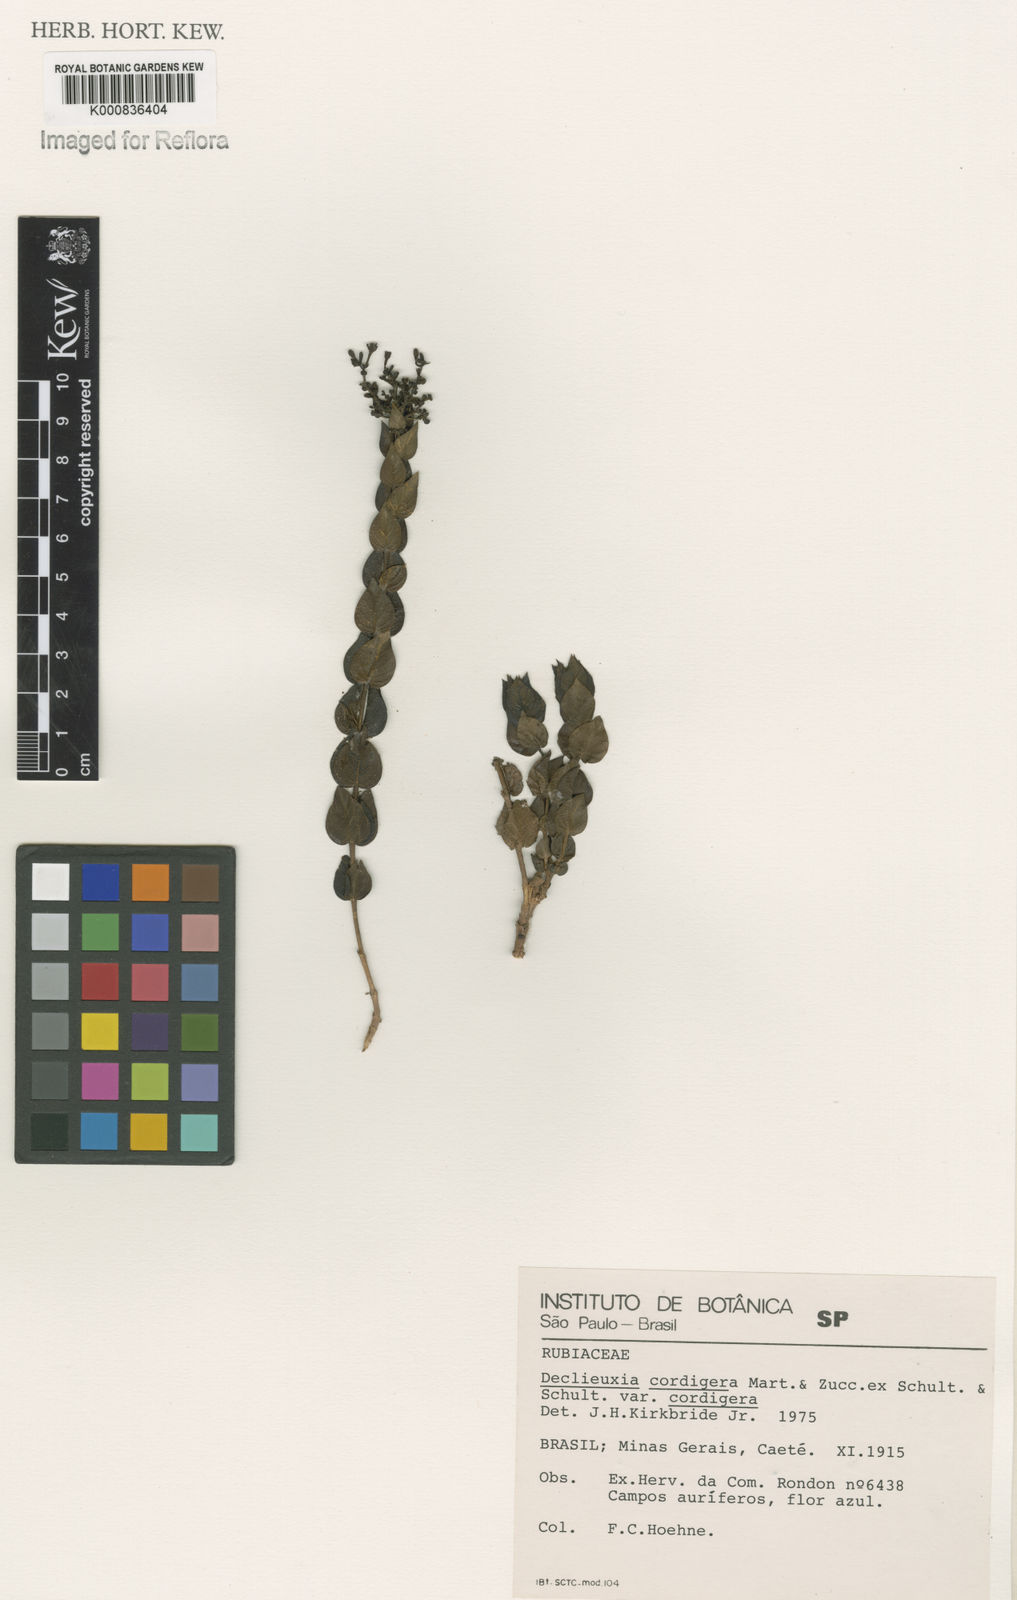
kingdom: Plantae
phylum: Tracheophyta
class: Magnoliopsida
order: Gentianales
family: Rubiaceae
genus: Declieuxia
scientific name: Declieuxia cordigera
